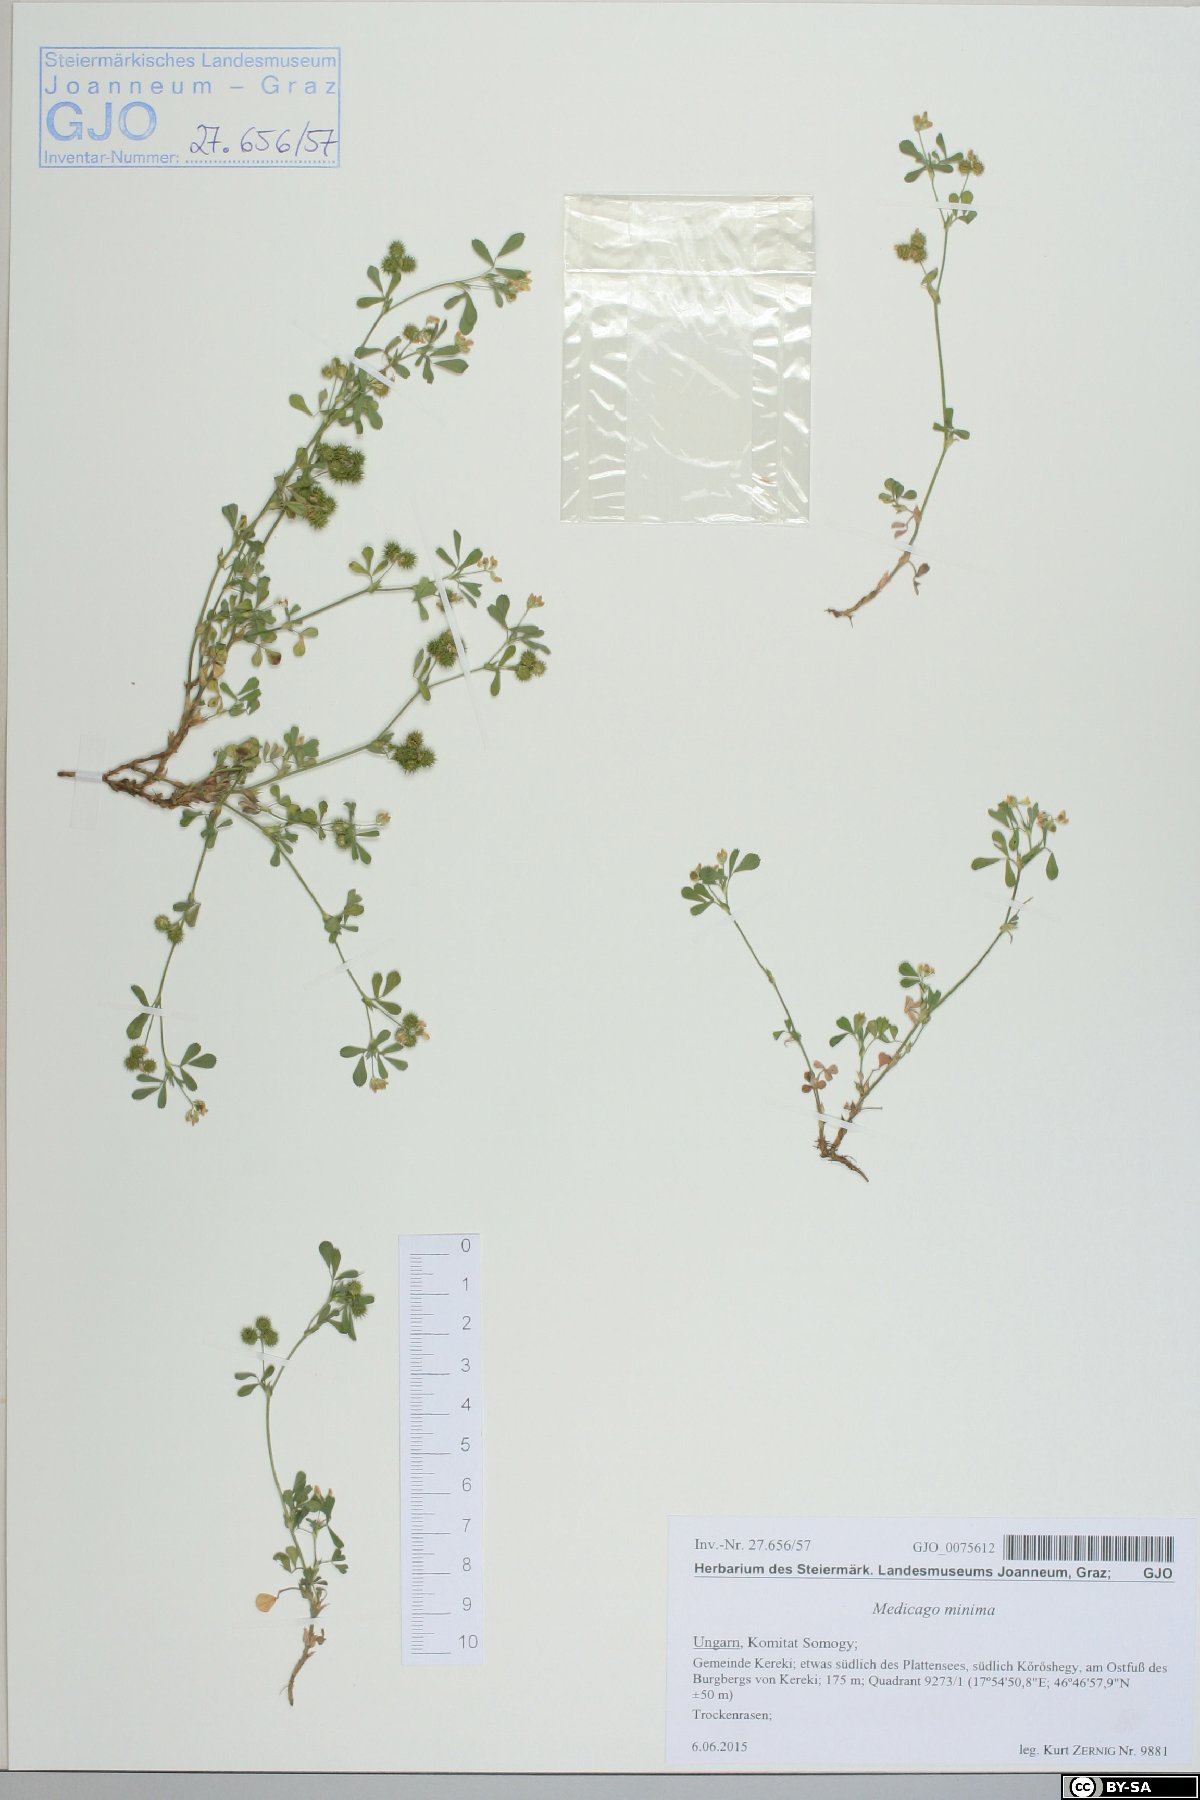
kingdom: Plantae
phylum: Tracheophyta
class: Magnoliopsida
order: Fabales
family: Fabaceae
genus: Medicago
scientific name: Medicago minima
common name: Little bur-clover
